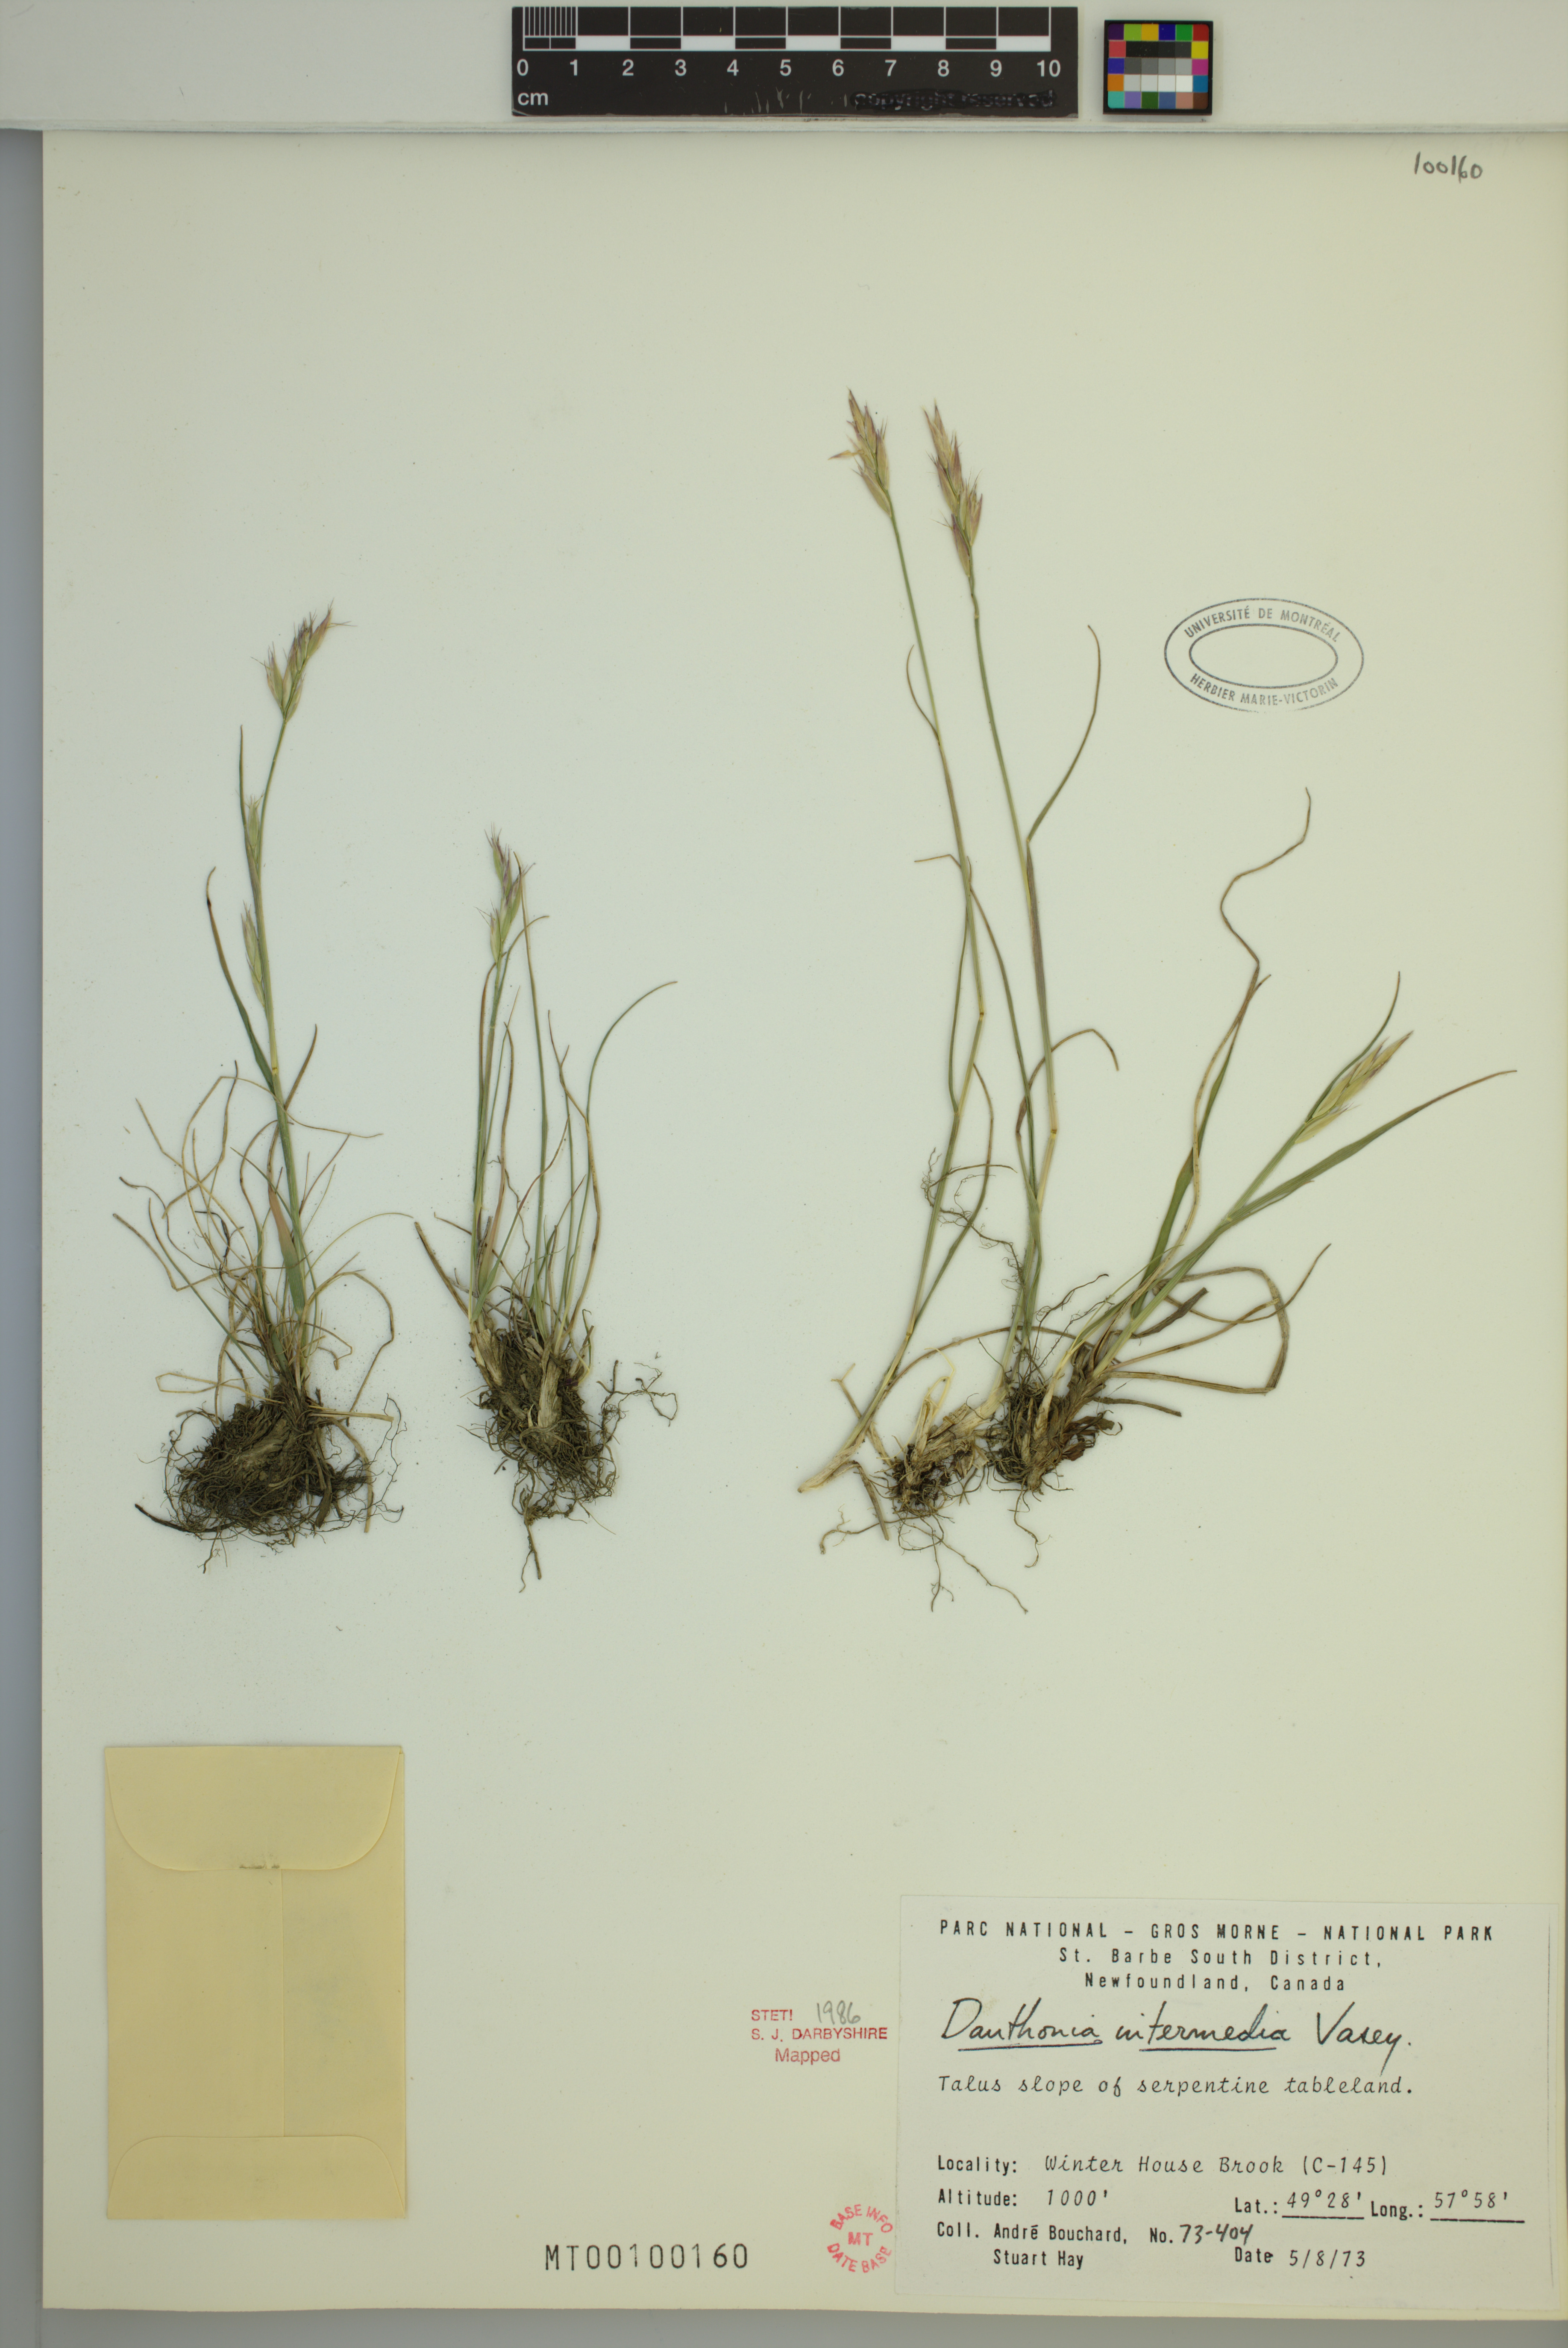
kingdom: Plantae
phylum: Tracheophyta
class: Liliopsida
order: Poales
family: Poaceae
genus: Danthonia
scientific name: Danthonia intermedia
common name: Intermediate oat grass
